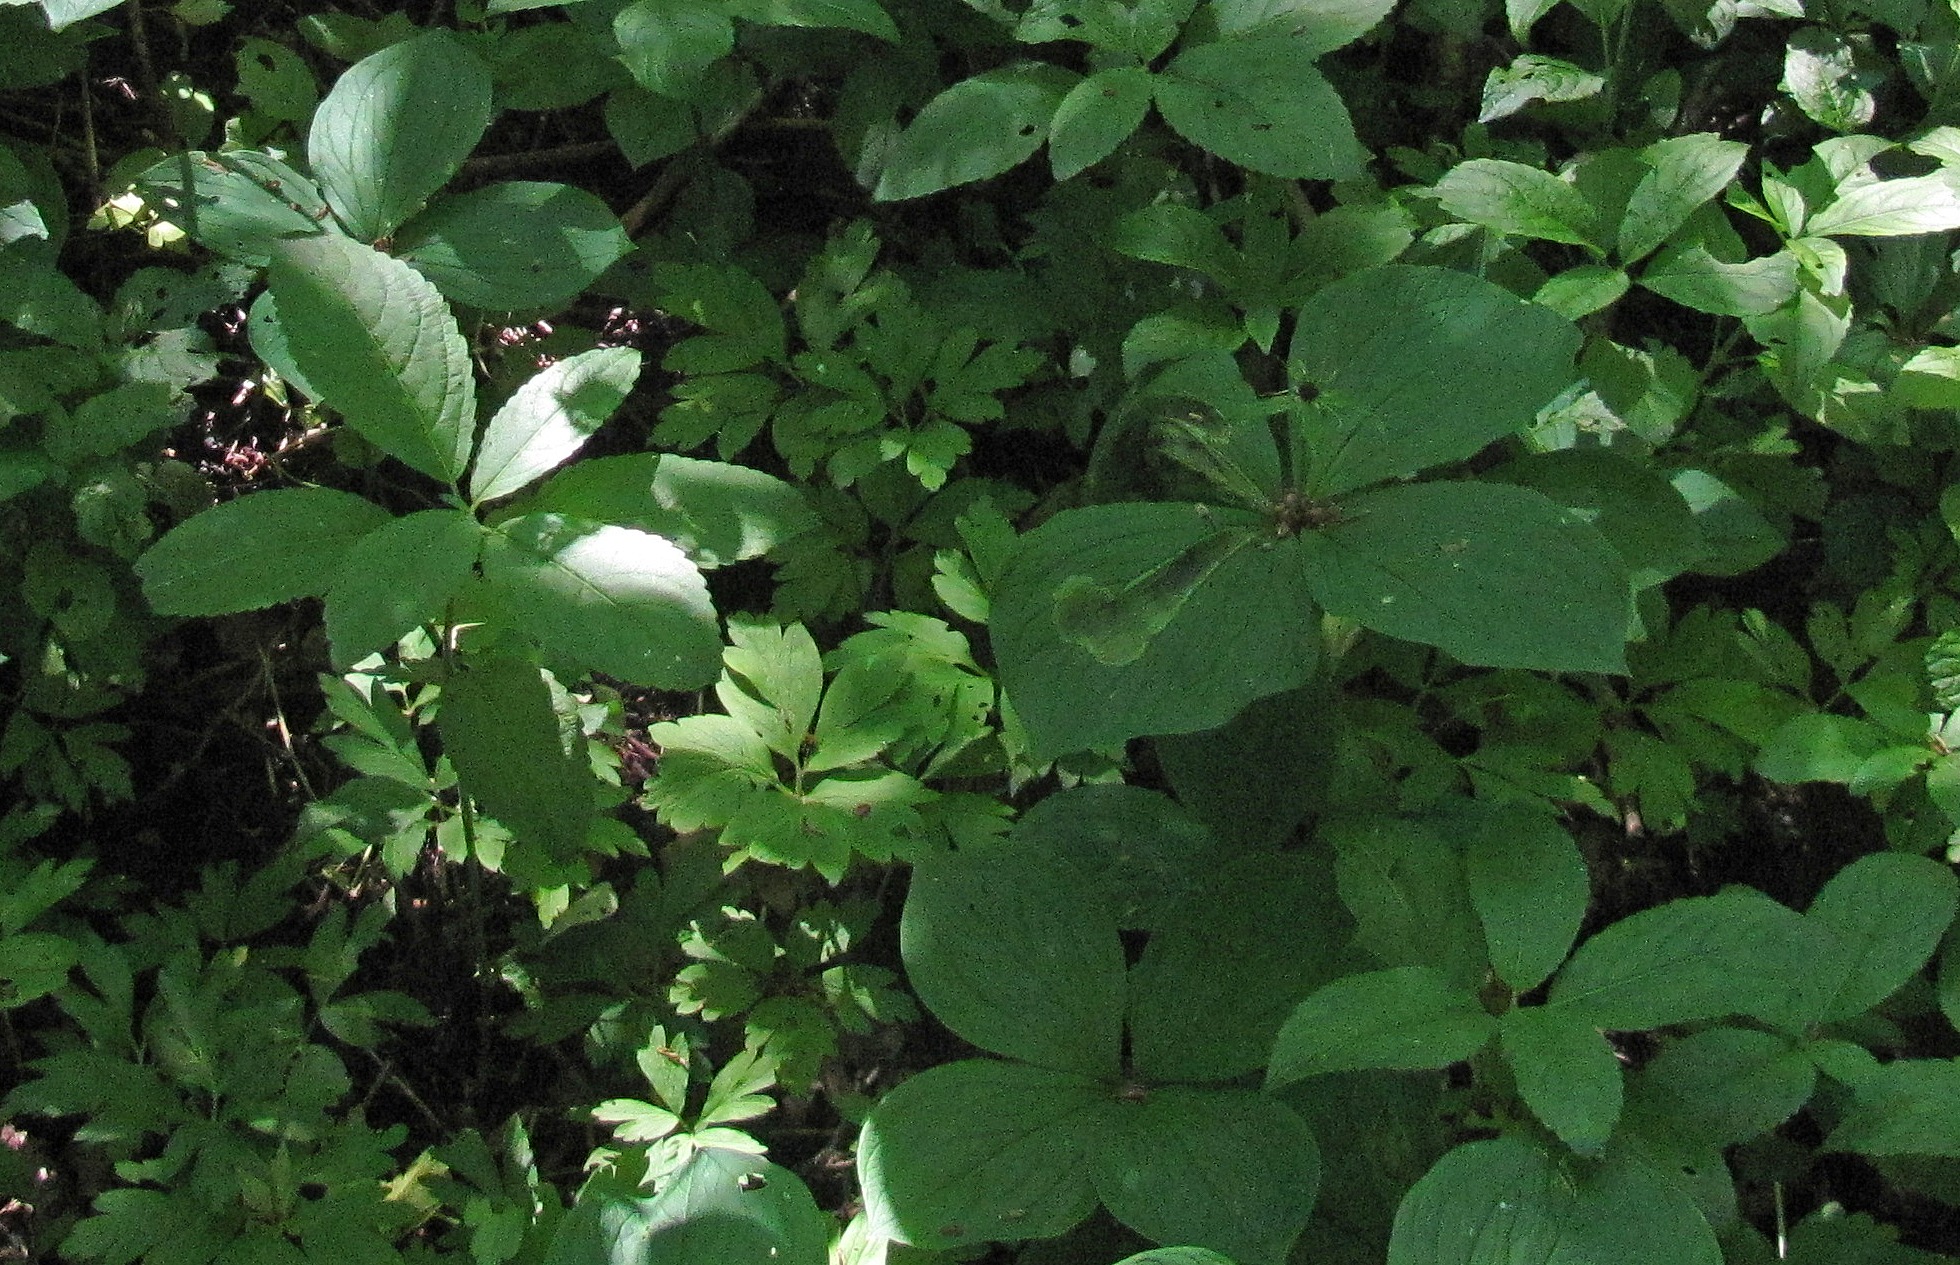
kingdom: Plantae
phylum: Tracheophyta
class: Liliopsida
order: Liliales
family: Melanthiaceae
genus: Paris
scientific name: Paris quadrifolia
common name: Firblad
